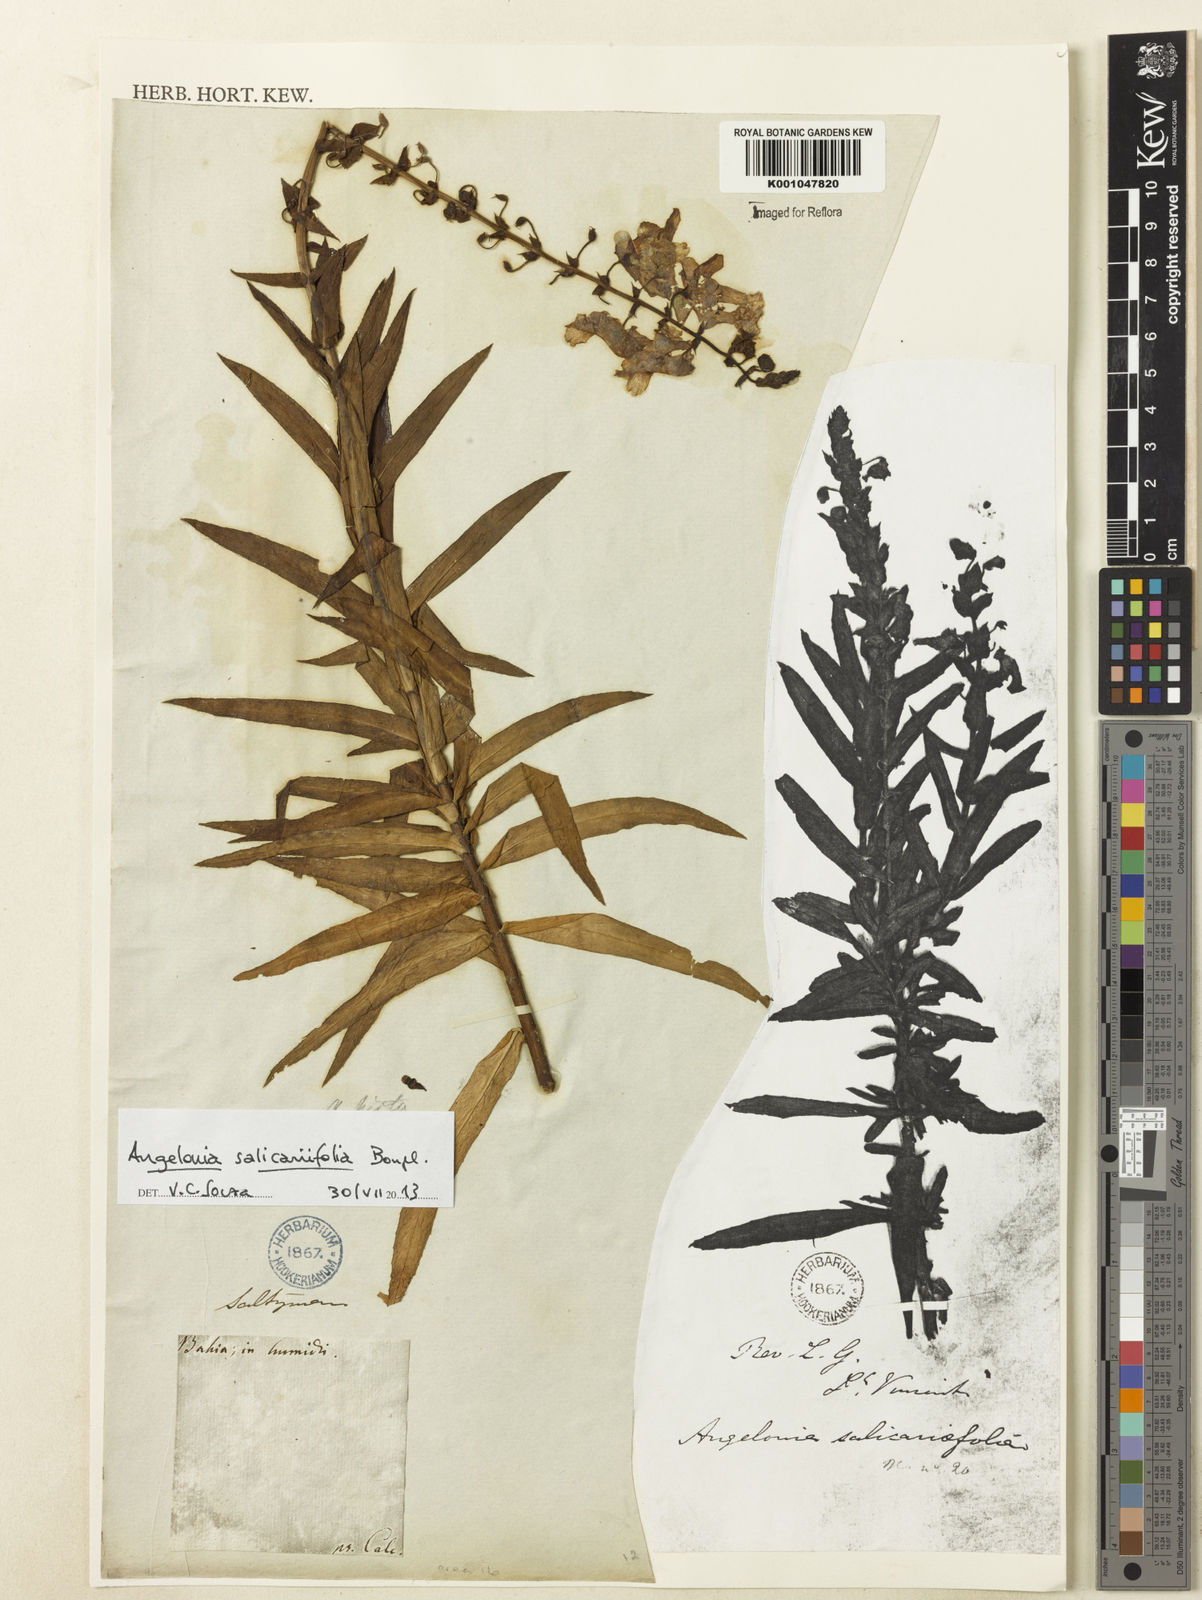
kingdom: Plantae
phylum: Tracheophyta
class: Magnoliopsida
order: Lamiales
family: Plantaginaceae
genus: Angelonia
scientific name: Angelonia salicariifolia
